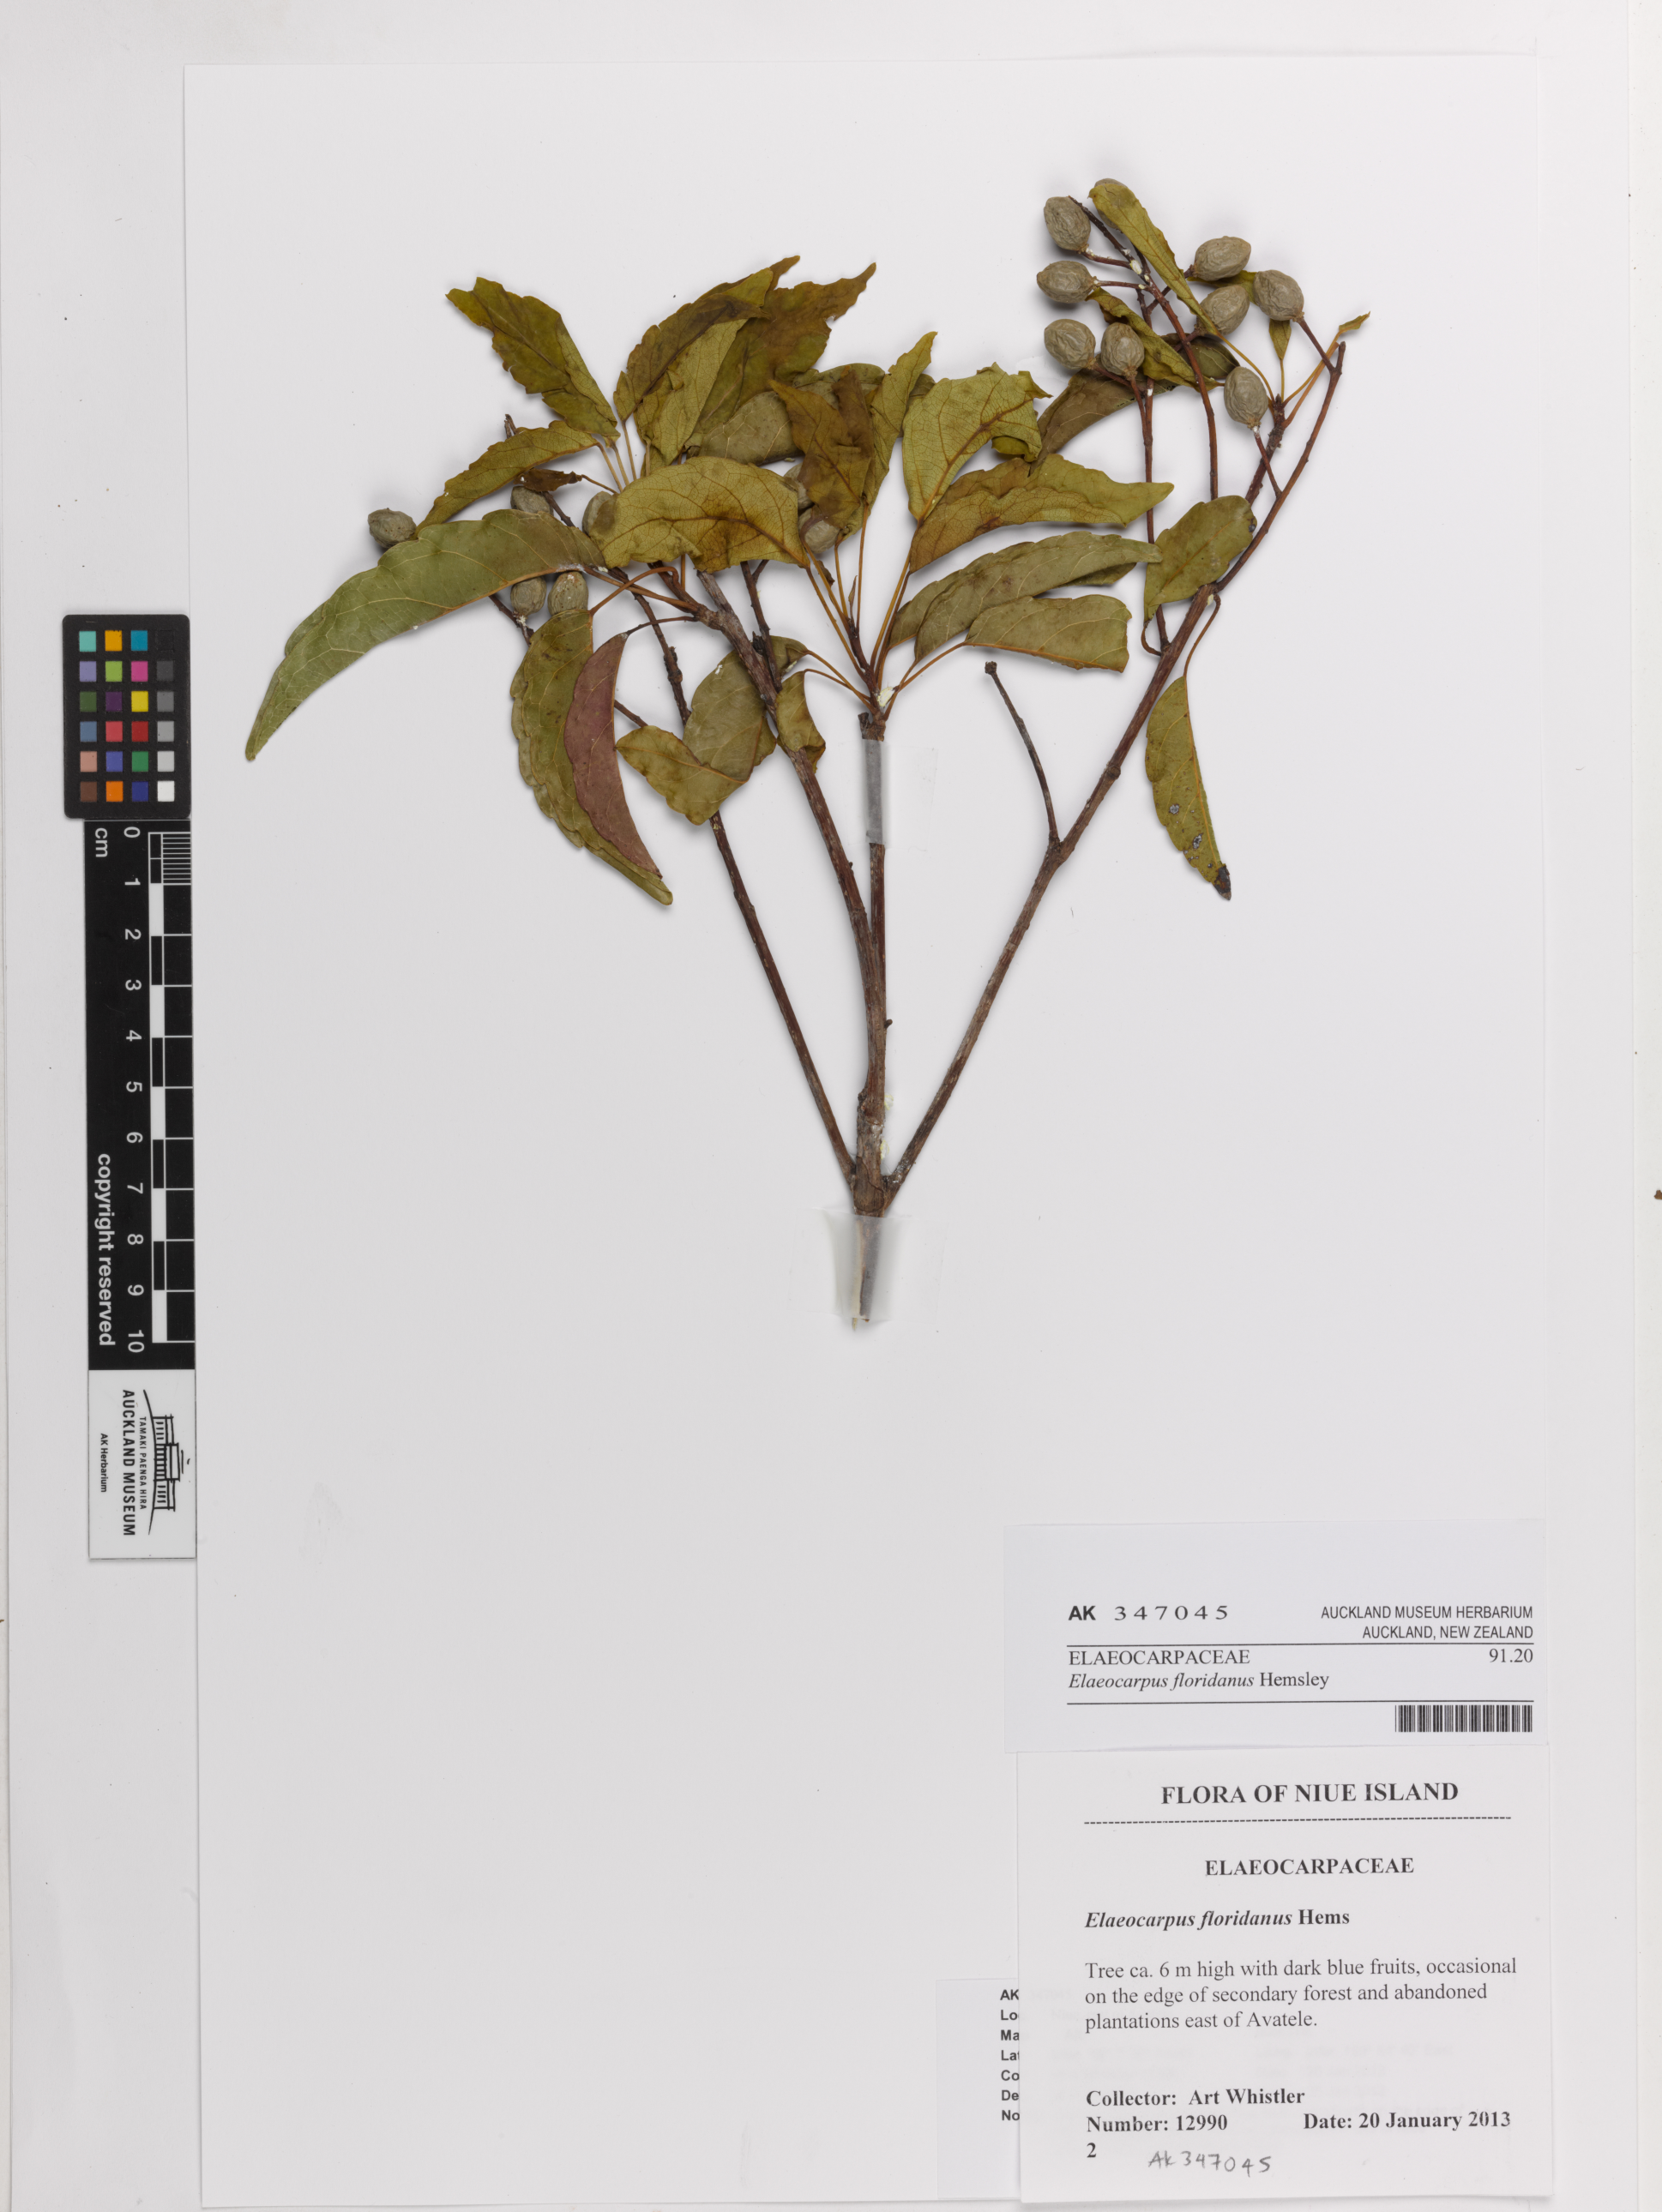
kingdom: Plantae
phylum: Tracheophyta
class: Magnoliopsida
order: Oxalidales
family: Elaeocarpaceae
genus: Elaeocarpus
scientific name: Elaeocarpus floridanus
